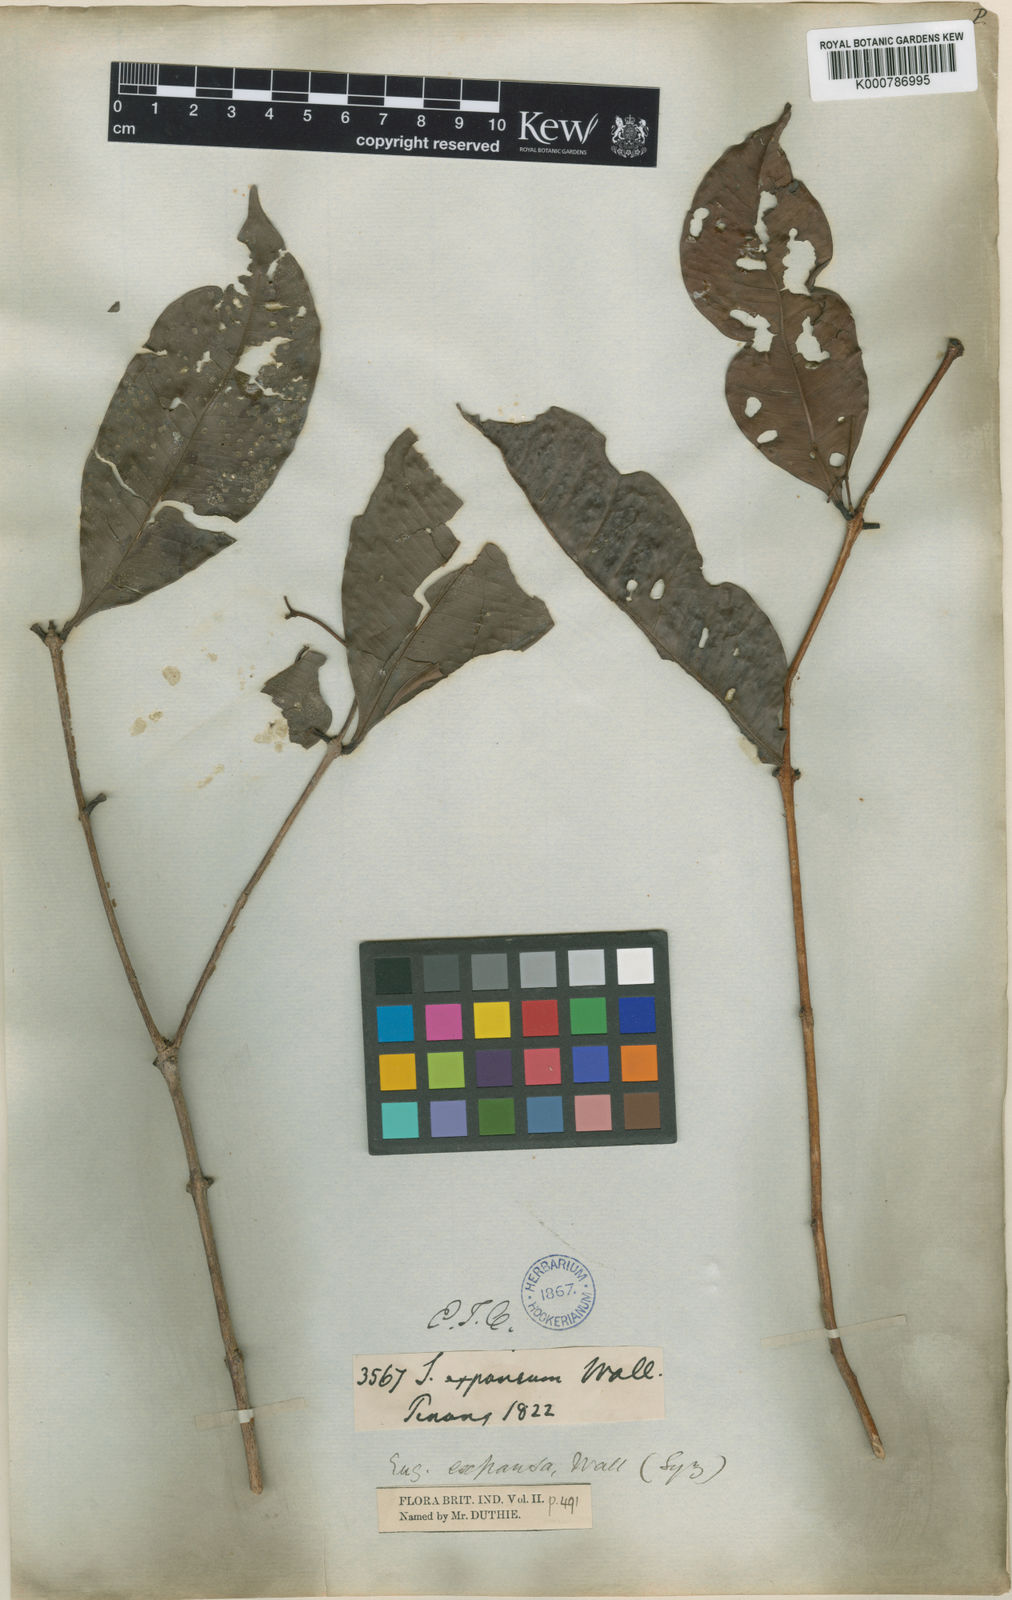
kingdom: Plantae
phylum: Tracheophyta
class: Magnoliopsida
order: Myrtales
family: Myrtaceae
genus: Syzygium
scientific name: Syzygium racemosum
